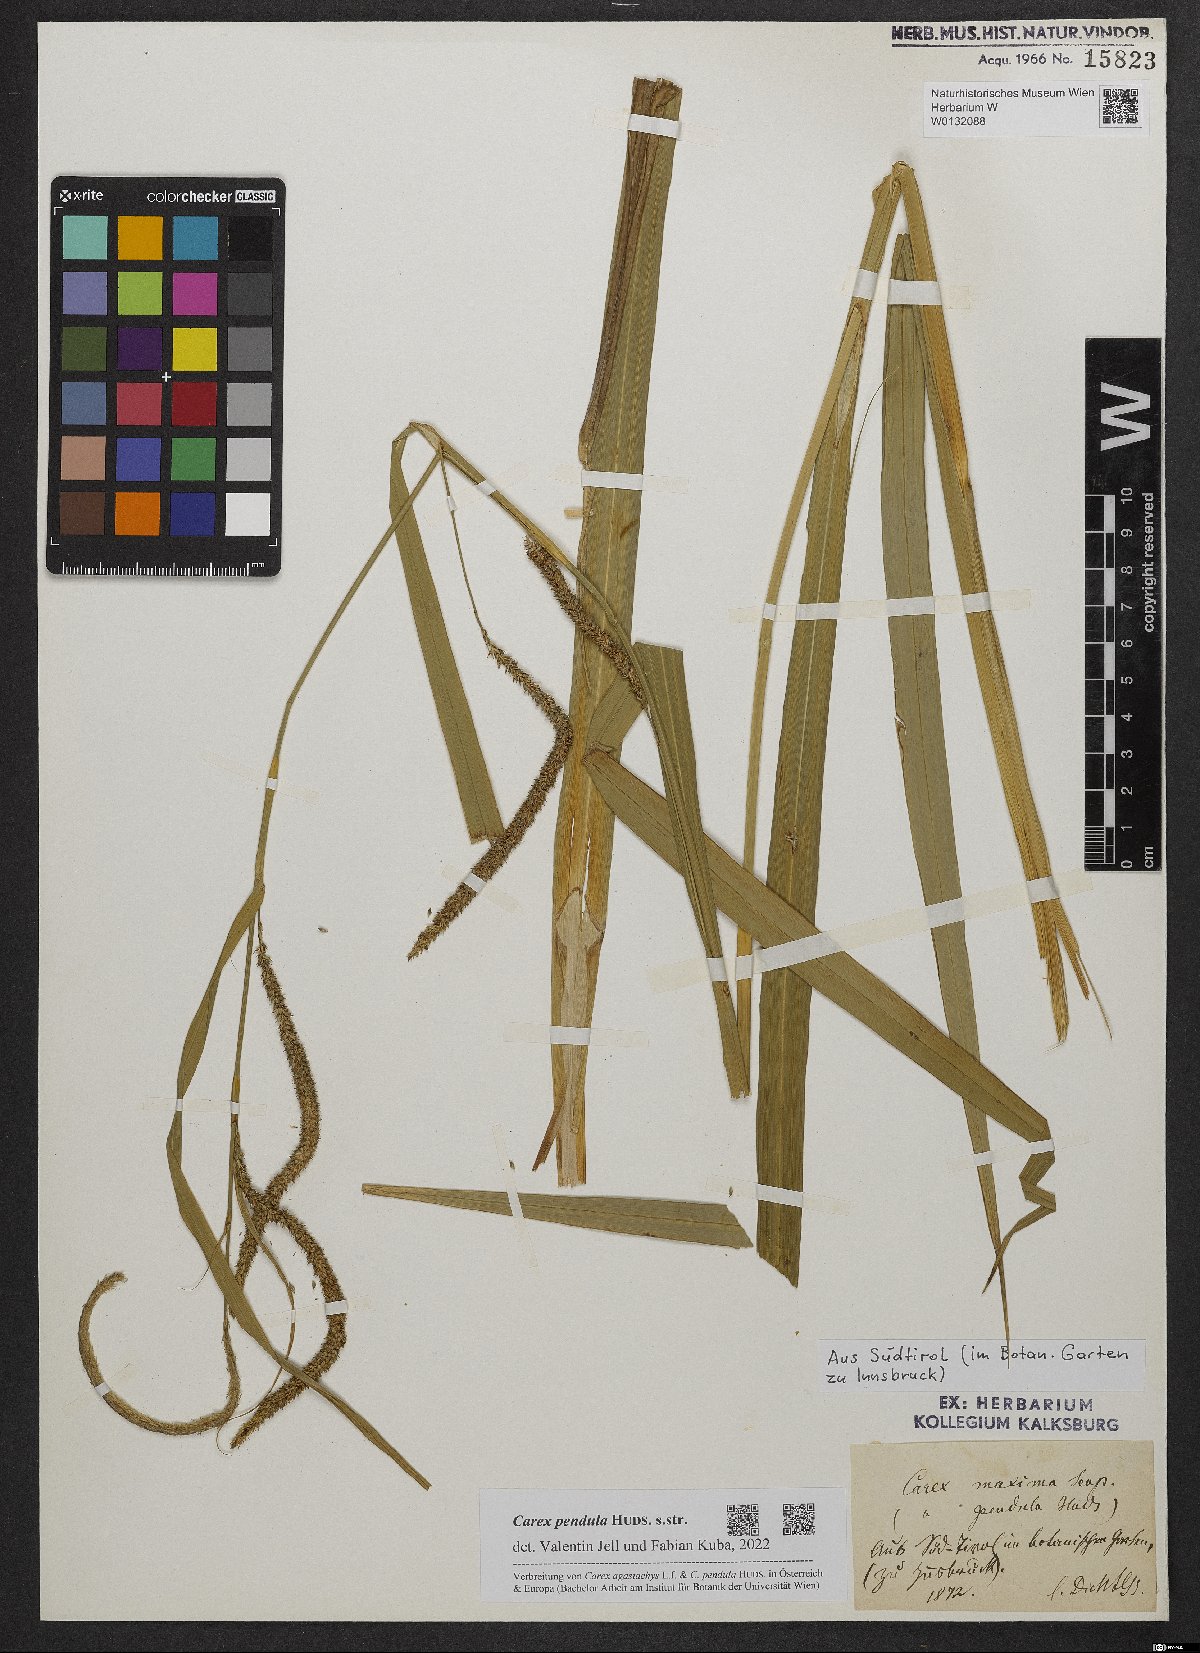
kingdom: Plantae
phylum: Tracheophyta
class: Liliopsida
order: Poales
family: Cyperaceae
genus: Carex
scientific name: Carex pendula
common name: Pendulous sedge
